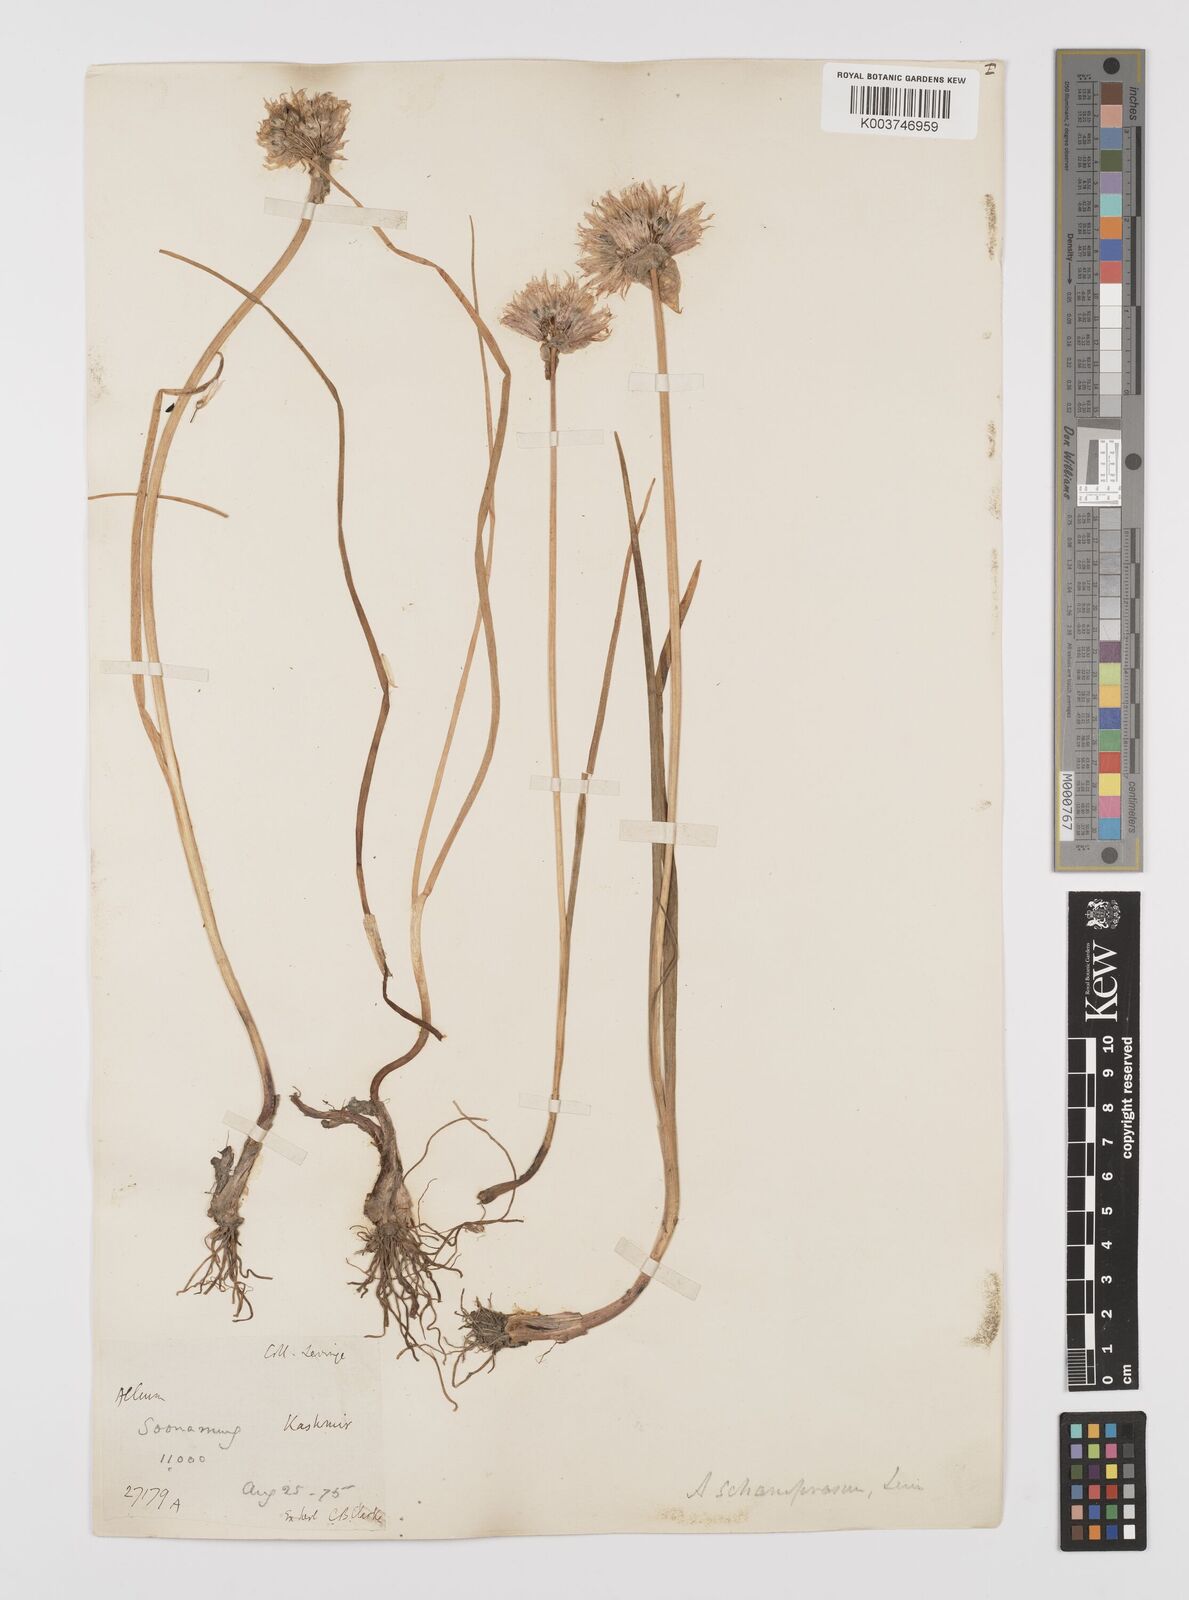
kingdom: Plantae
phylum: Tracheophyta
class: Liliopsida
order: Asparagales
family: Amaryllidaceae
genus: Allium
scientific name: Allium
